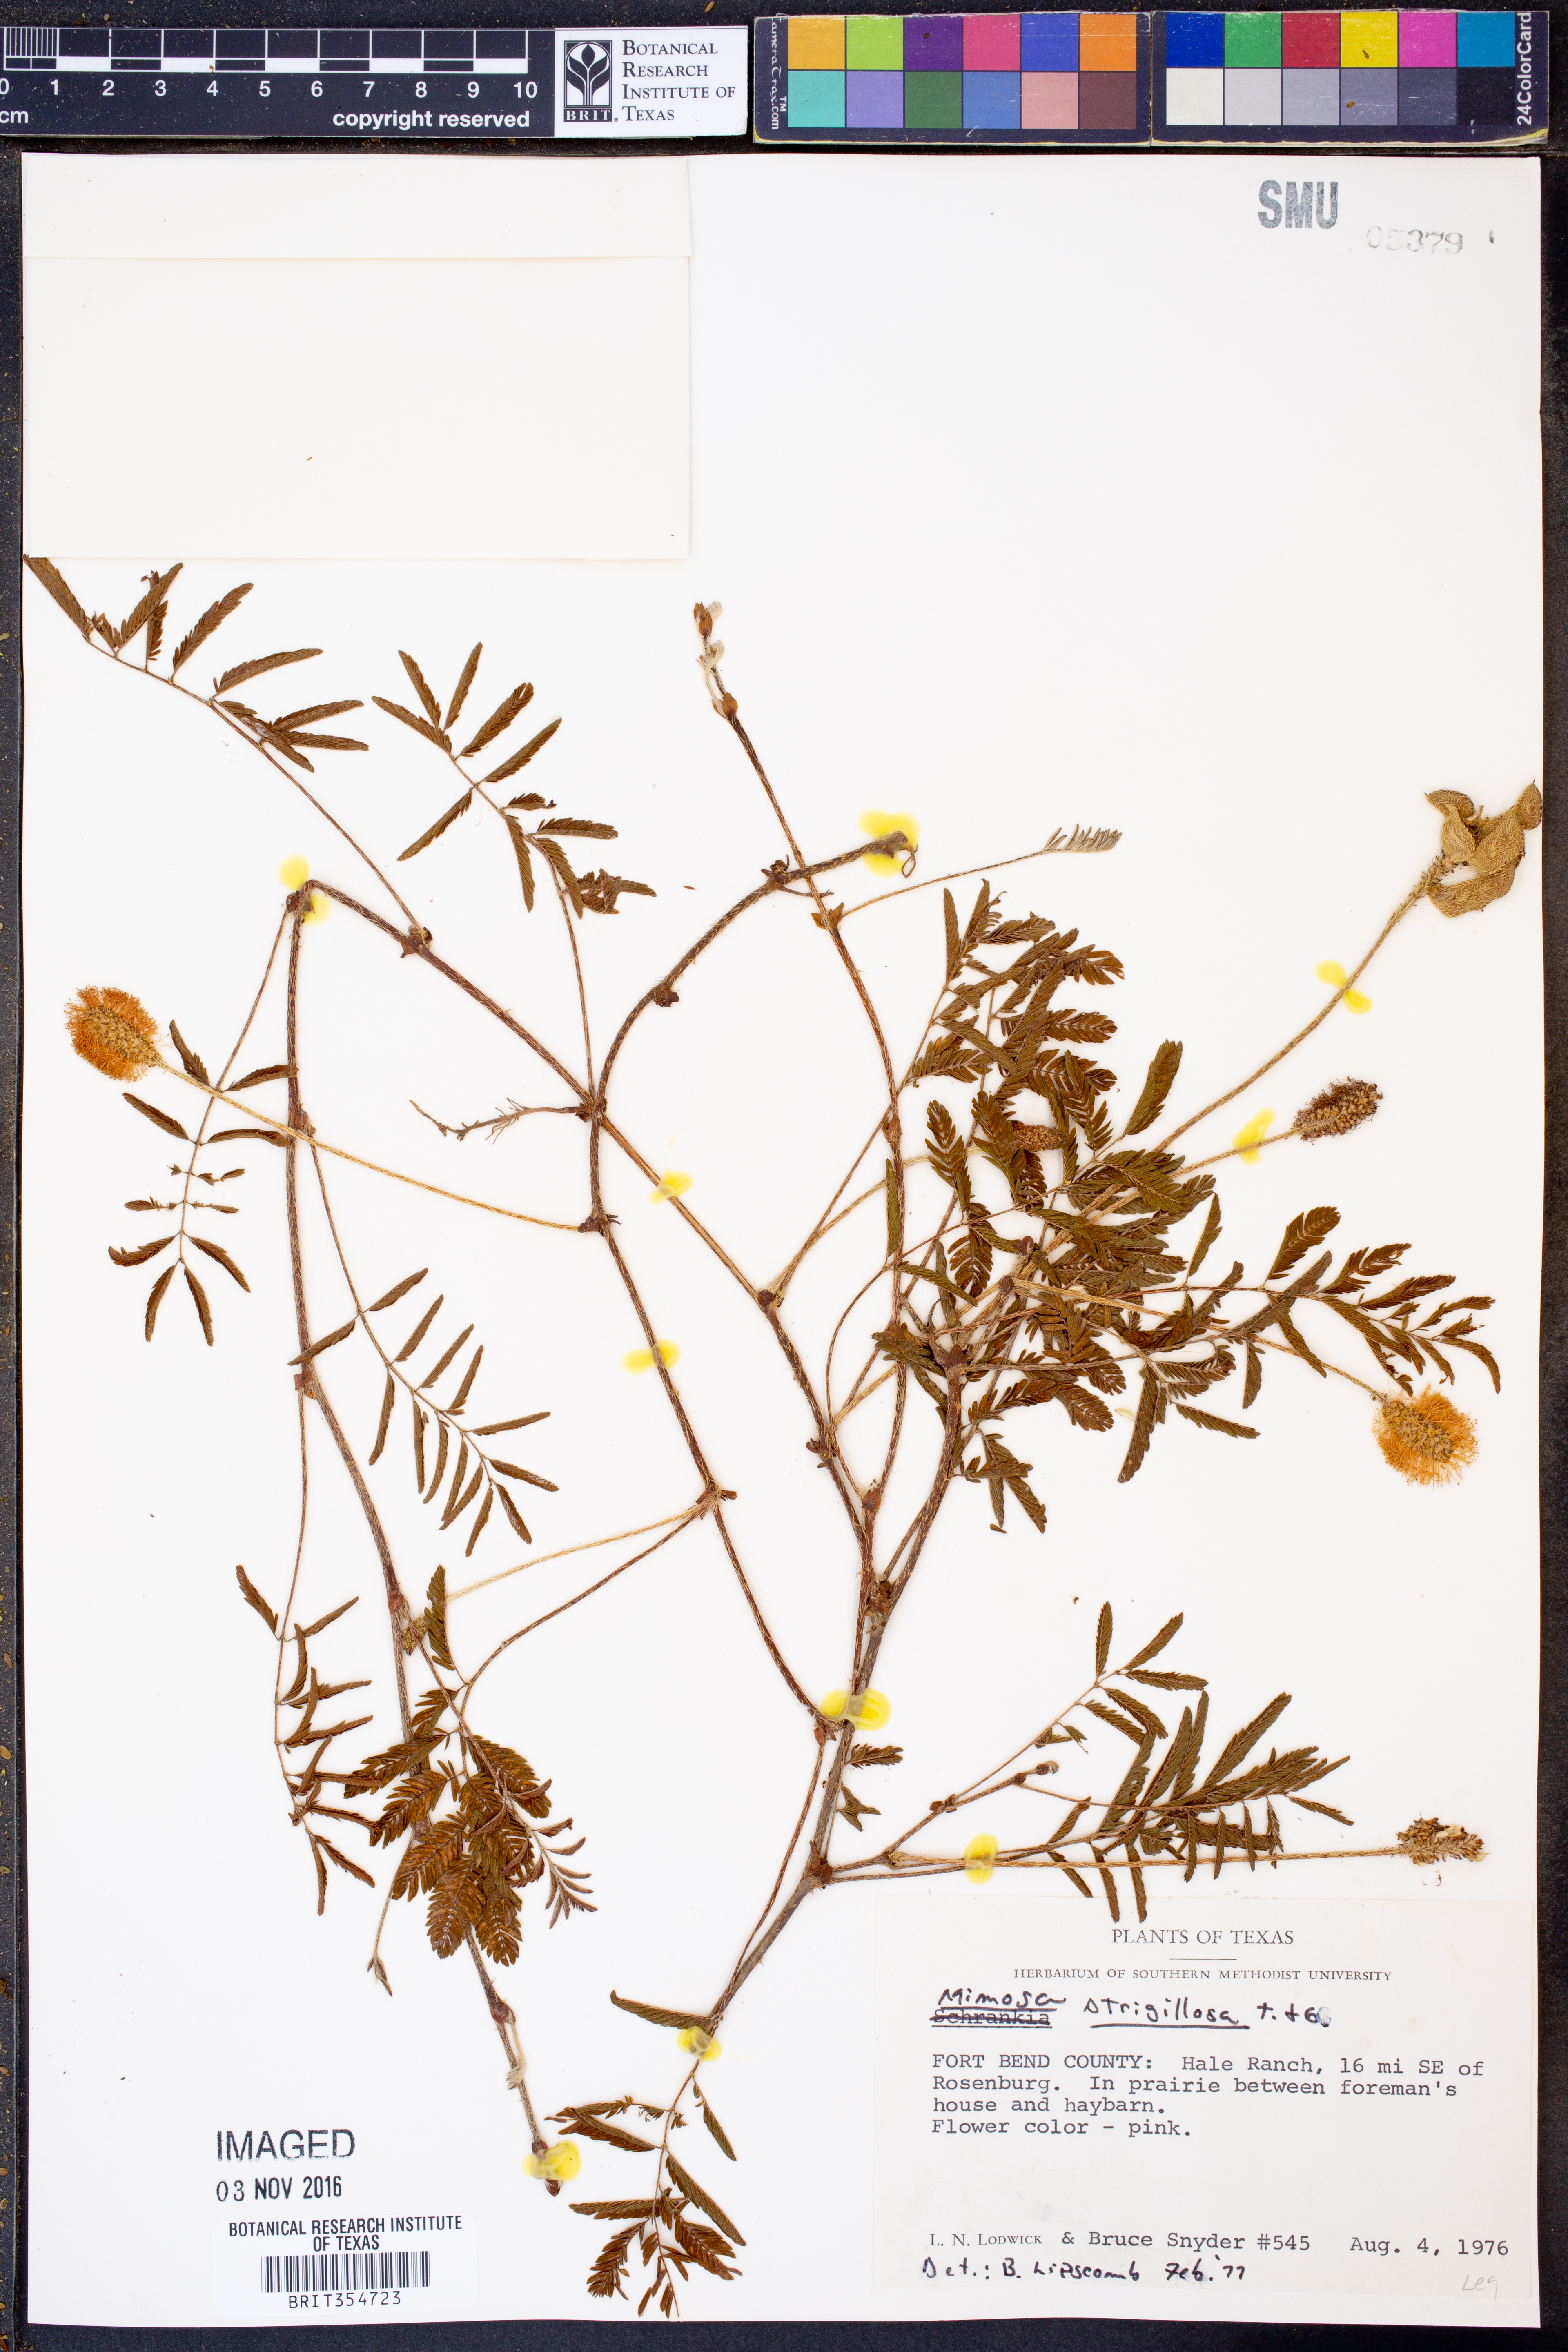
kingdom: Plantae
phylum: Tracheophyta
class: Magnoliopsida
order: Fabales
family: Fabaceae
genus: Mimosa
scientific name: Mimosa strigillosa
